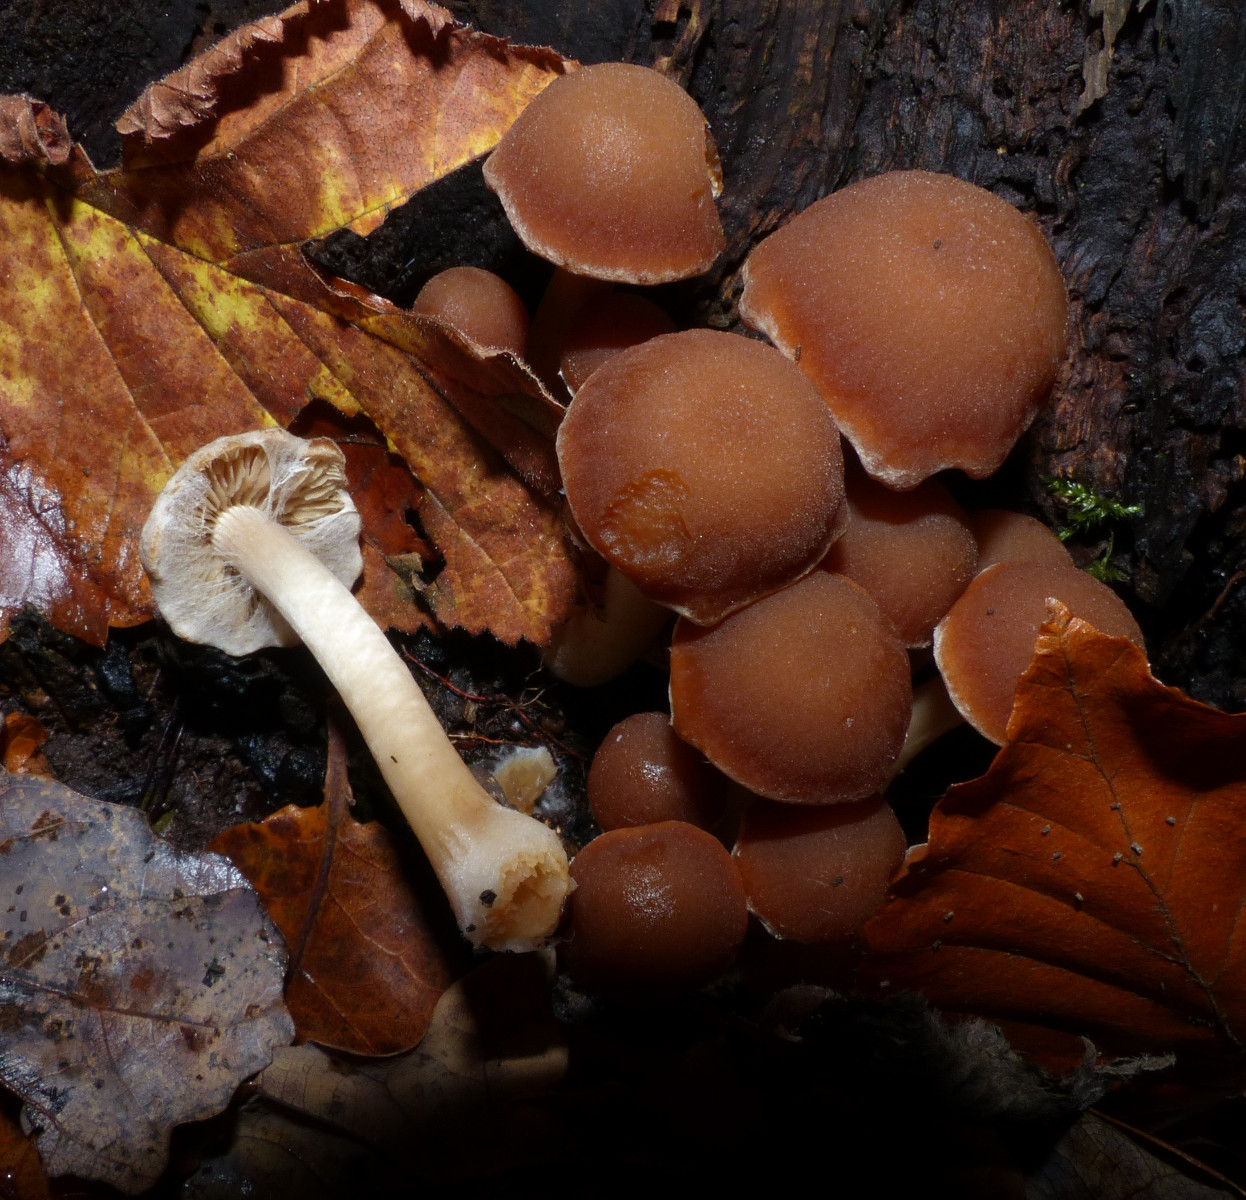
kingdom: Fungi
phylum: Basidiomycota
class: Agaricomycetes
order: Agaricales
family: Psathyrellaceae
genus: Psathyrella
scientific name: Psathyrella piluliformis
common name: lysstokket mørkhat
